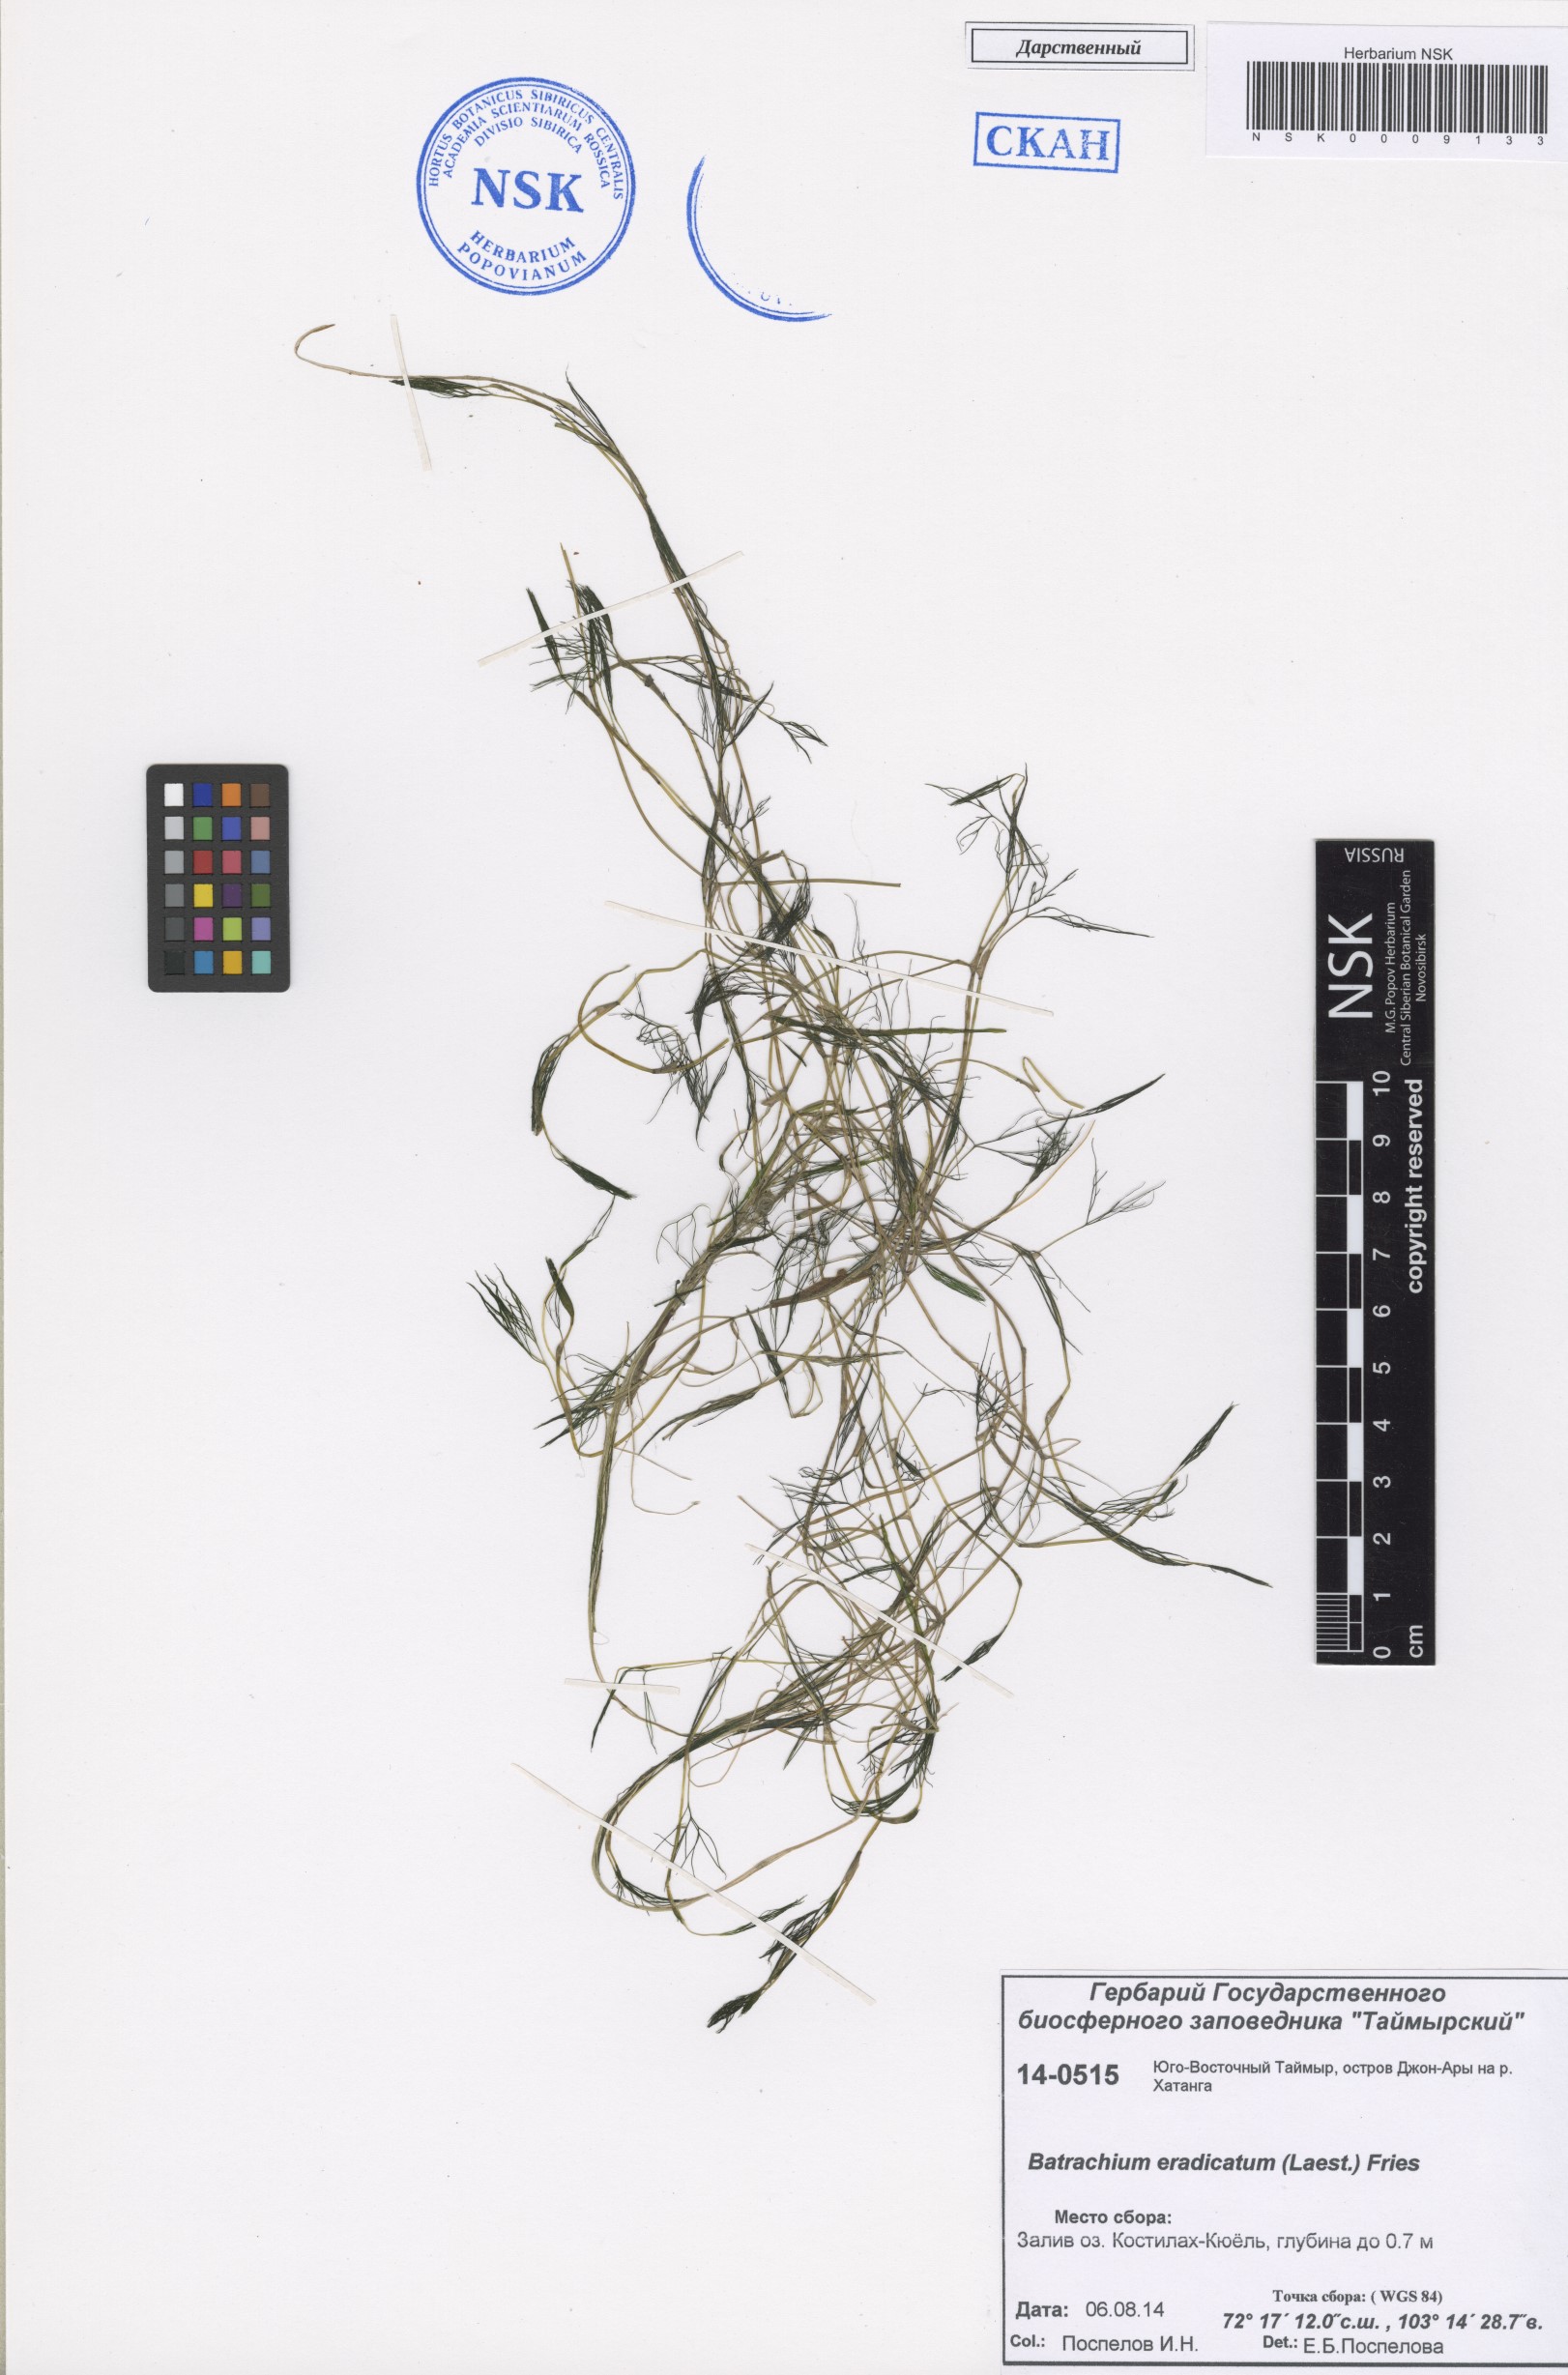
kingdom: Plantae
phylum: Tracheophyta
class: Magnoliopsida
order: Ranunculales
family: Ranunculaceae
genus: Ranunculus
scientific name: Ranunculus confervoides
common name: Delicate buttercup
